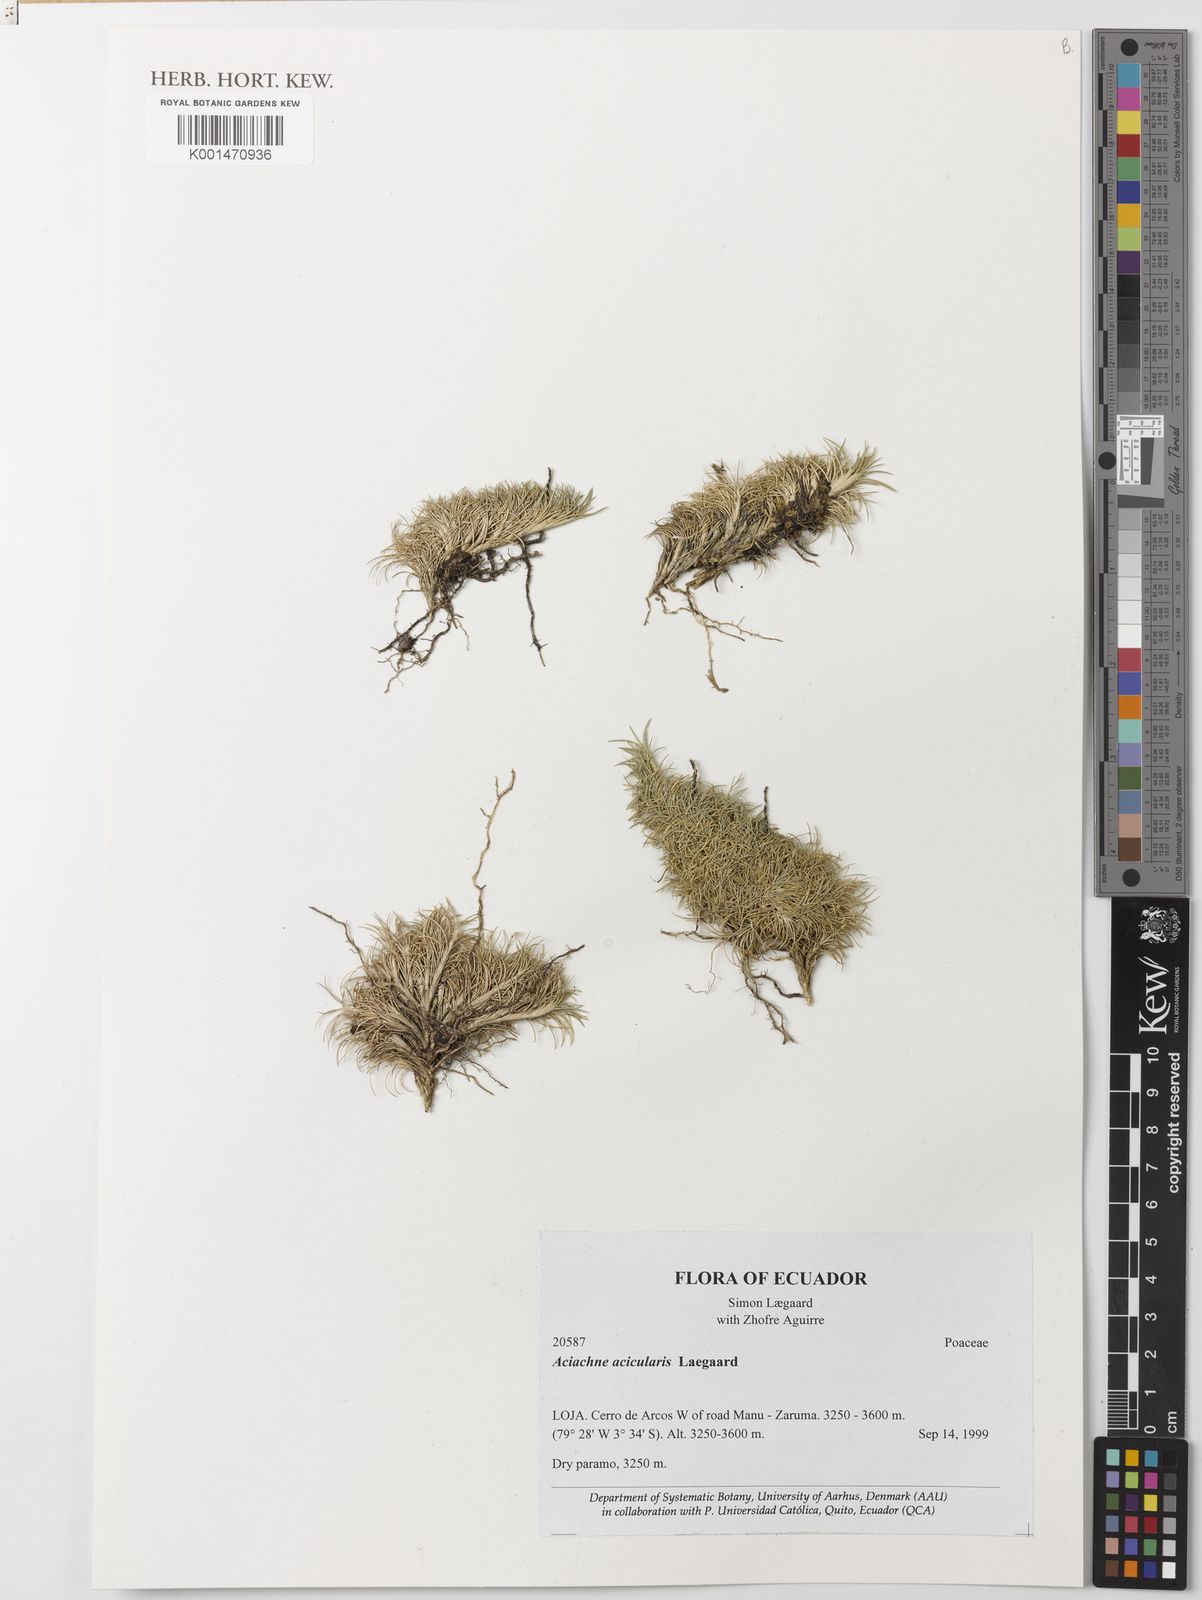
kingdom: Plantae
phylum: Tracheophyta
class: Liliopsida
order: Poales
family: Poaceae
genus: Aciachne
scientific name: Aciachne acicularis
